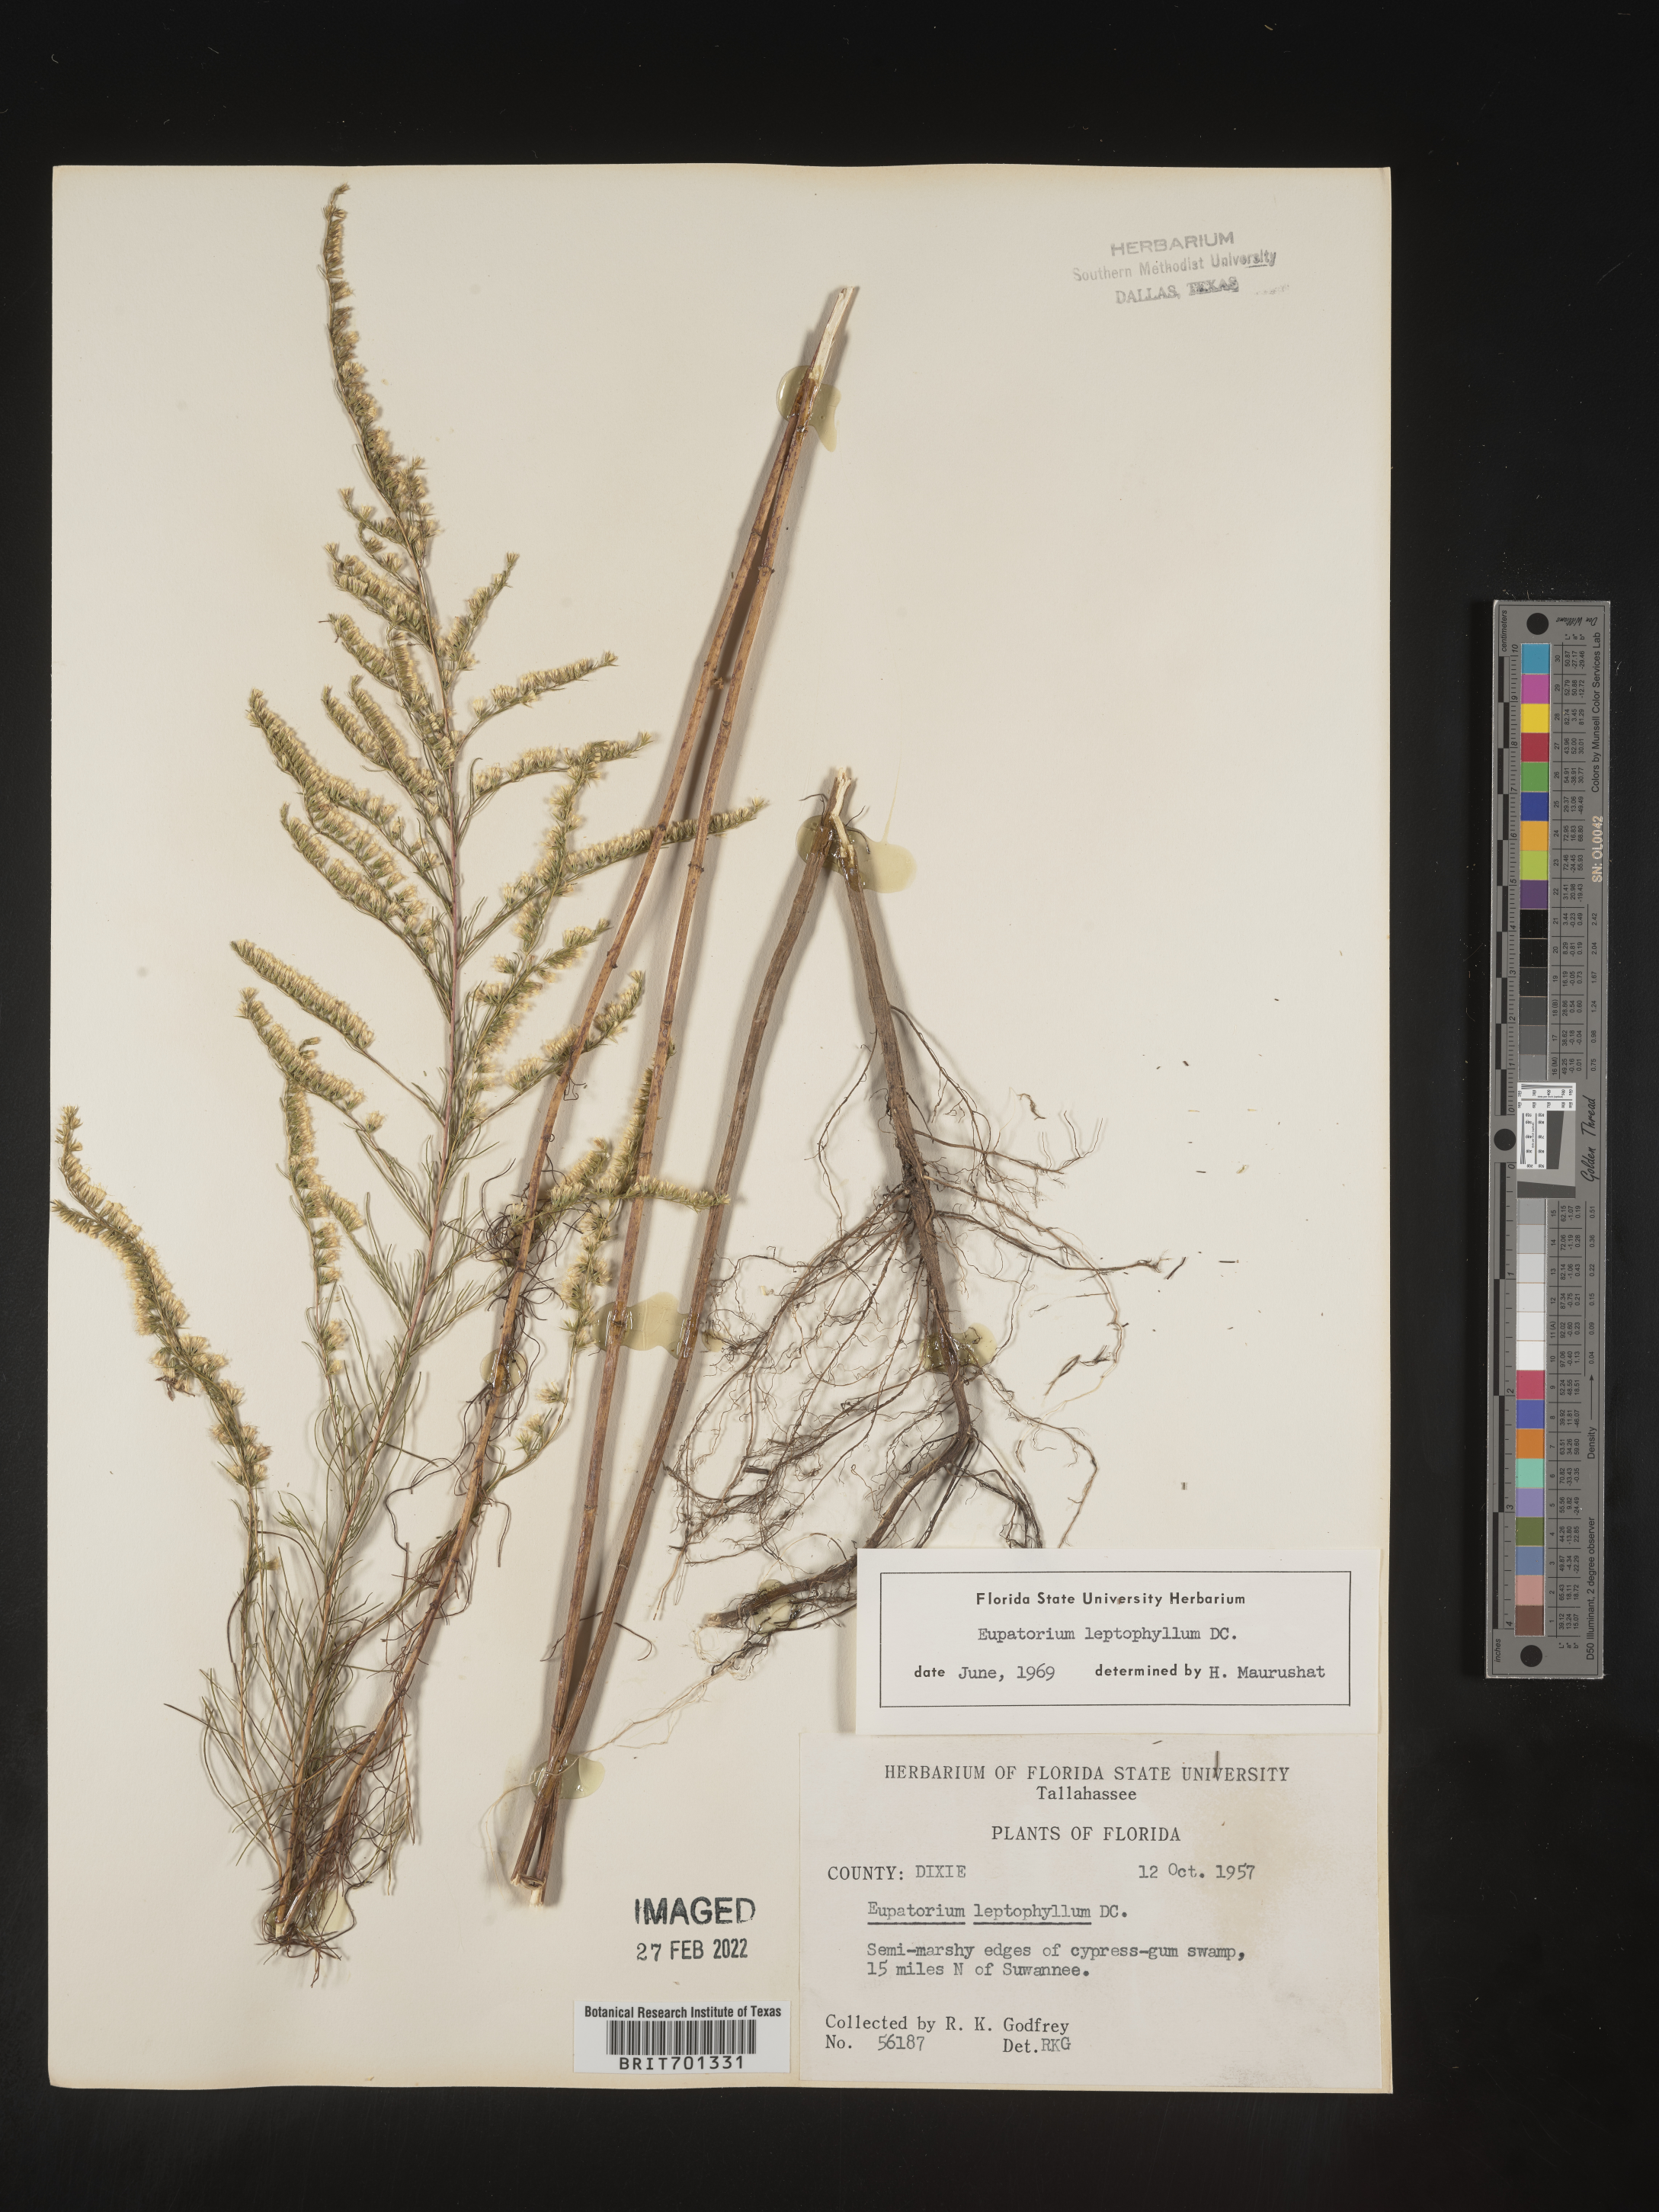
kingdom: Plantae
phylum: Tracheophyta
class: Magnoliopsida
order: Asterales
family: Asteraceae
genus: Eupatorium
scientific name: Eupatorium leptophyllum
